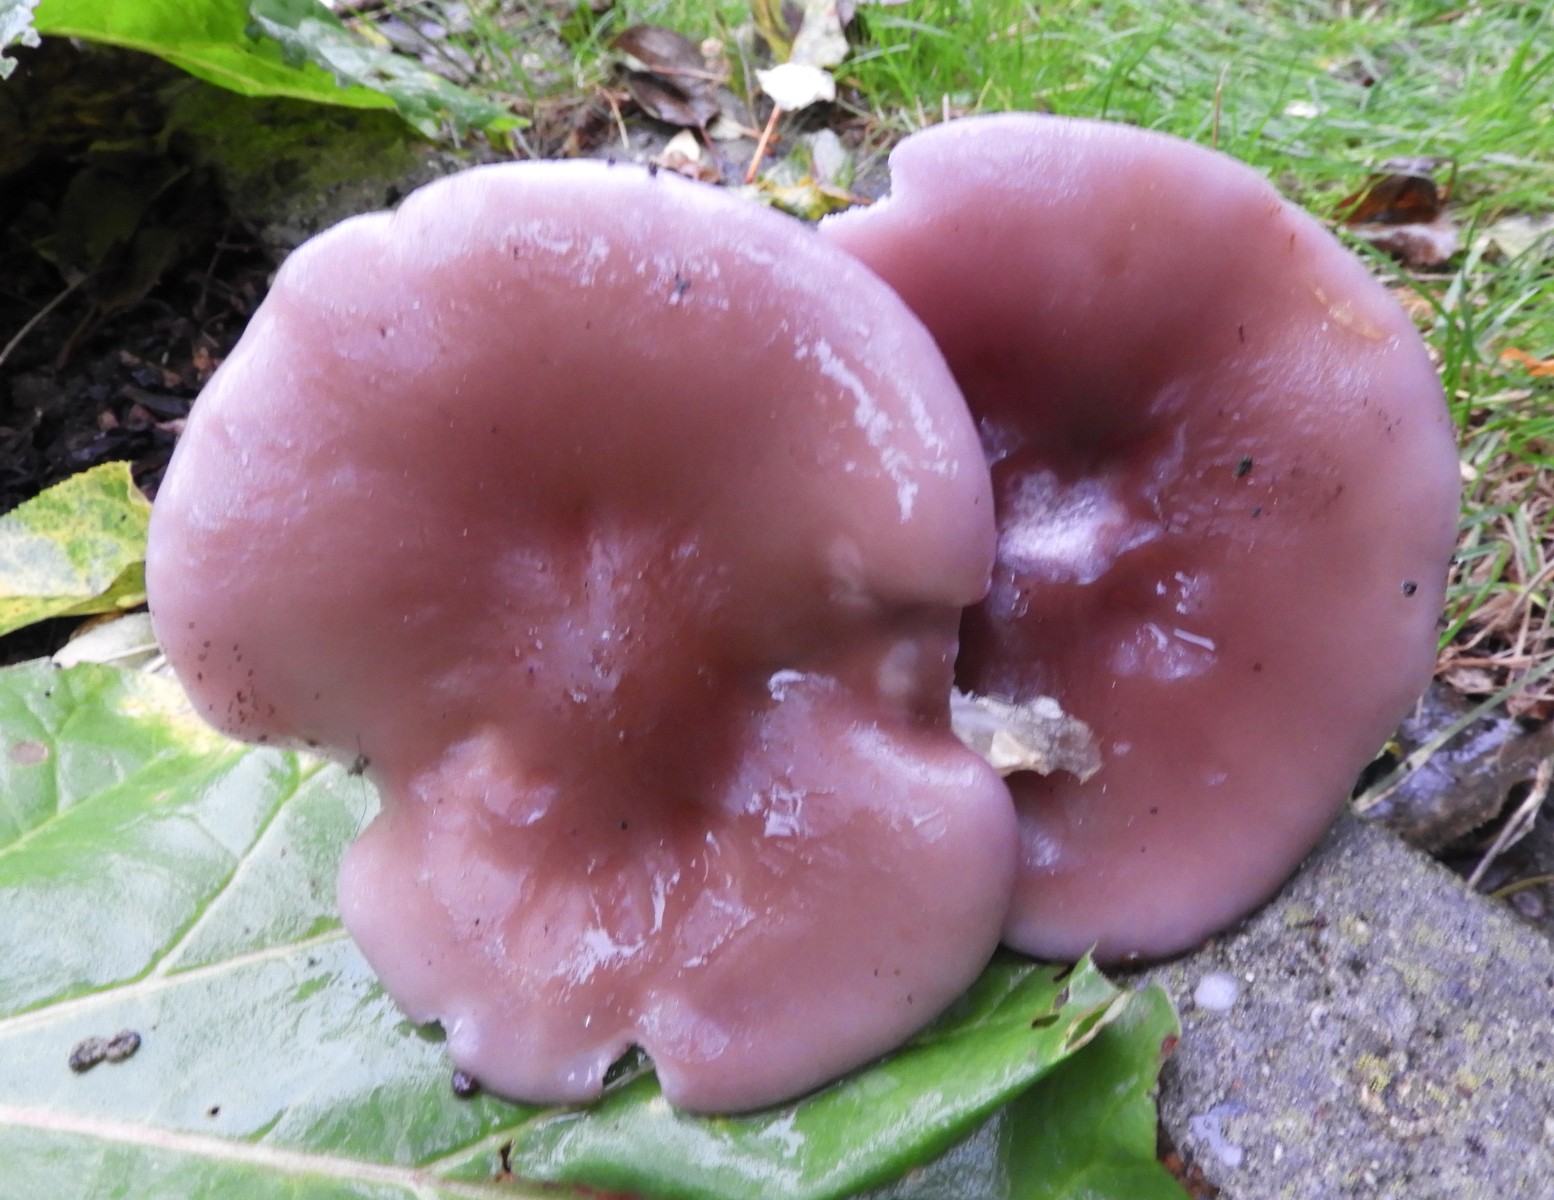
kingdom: Fungi
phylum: Basidiomycota
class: Agaricomycetes
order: Agaricales
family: Tricholomataceae
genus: Lepista
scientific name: Lepista nuda
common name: violet hekseringshat
